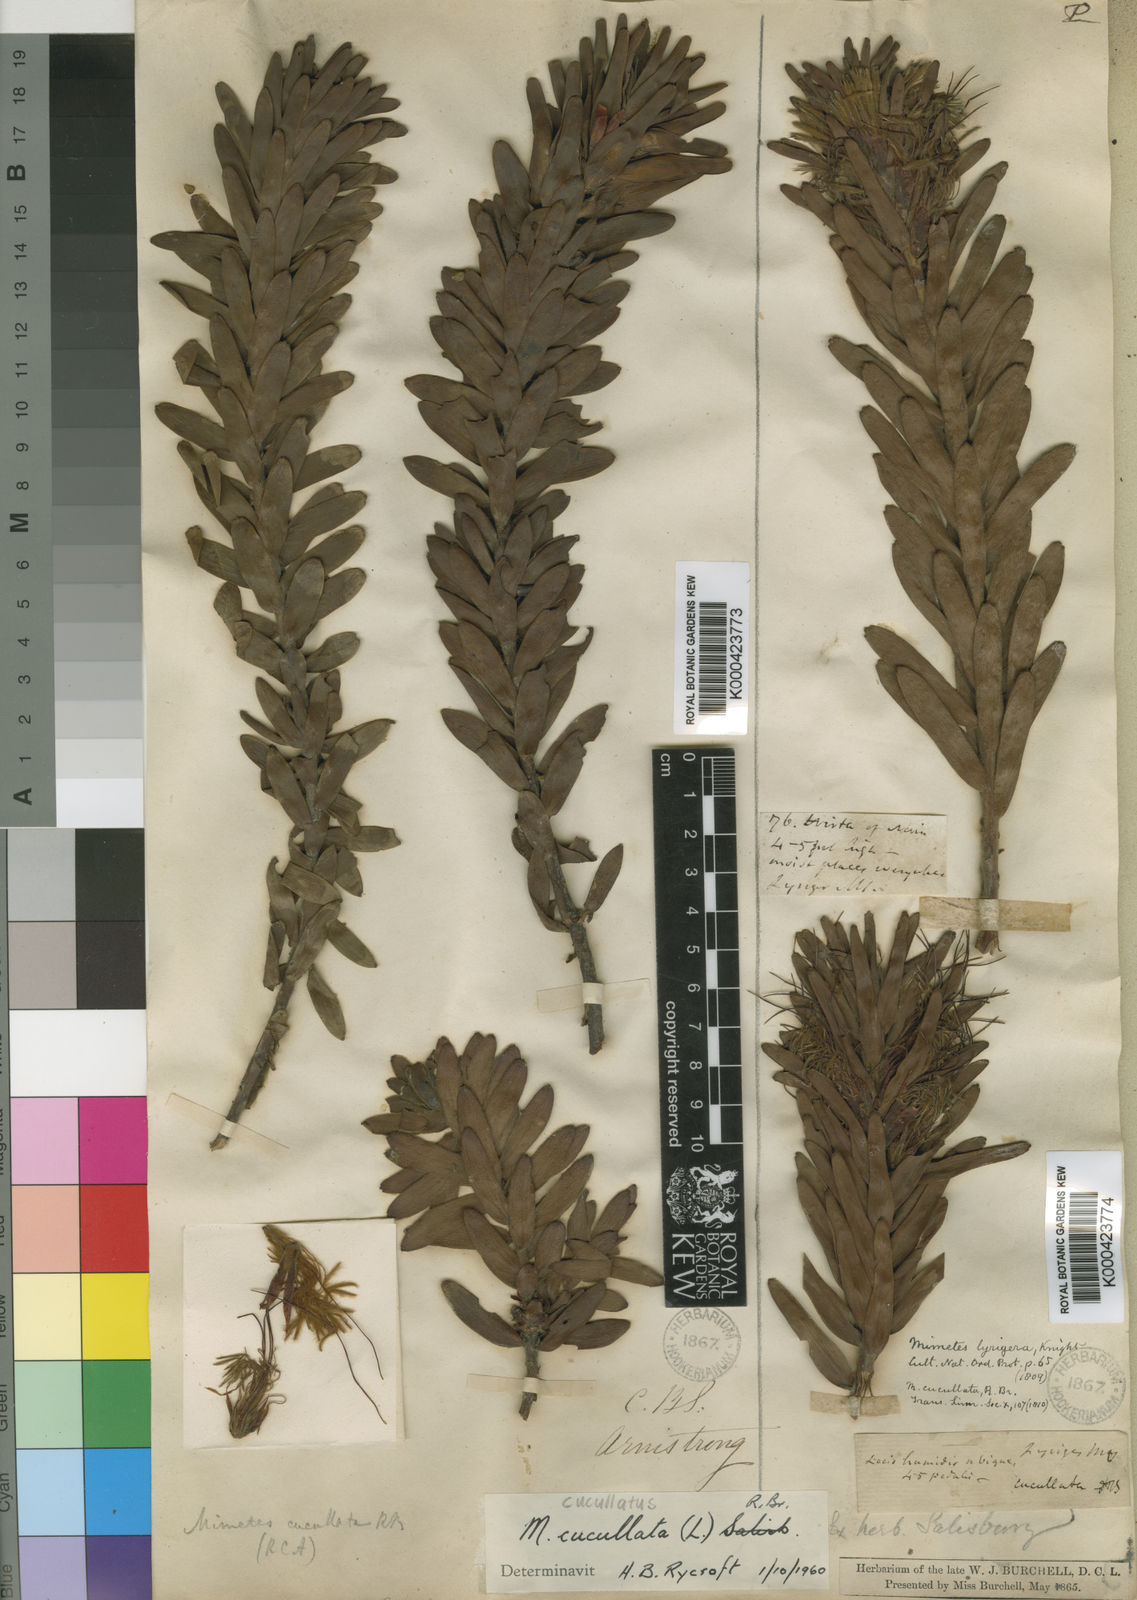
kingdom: Plantae
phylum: Tracheophyta
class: Magnoliopsida
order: Proteales
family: Proteaceae
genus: Mimetes
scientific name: Mimetes cucullatus
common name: Common pagoda
